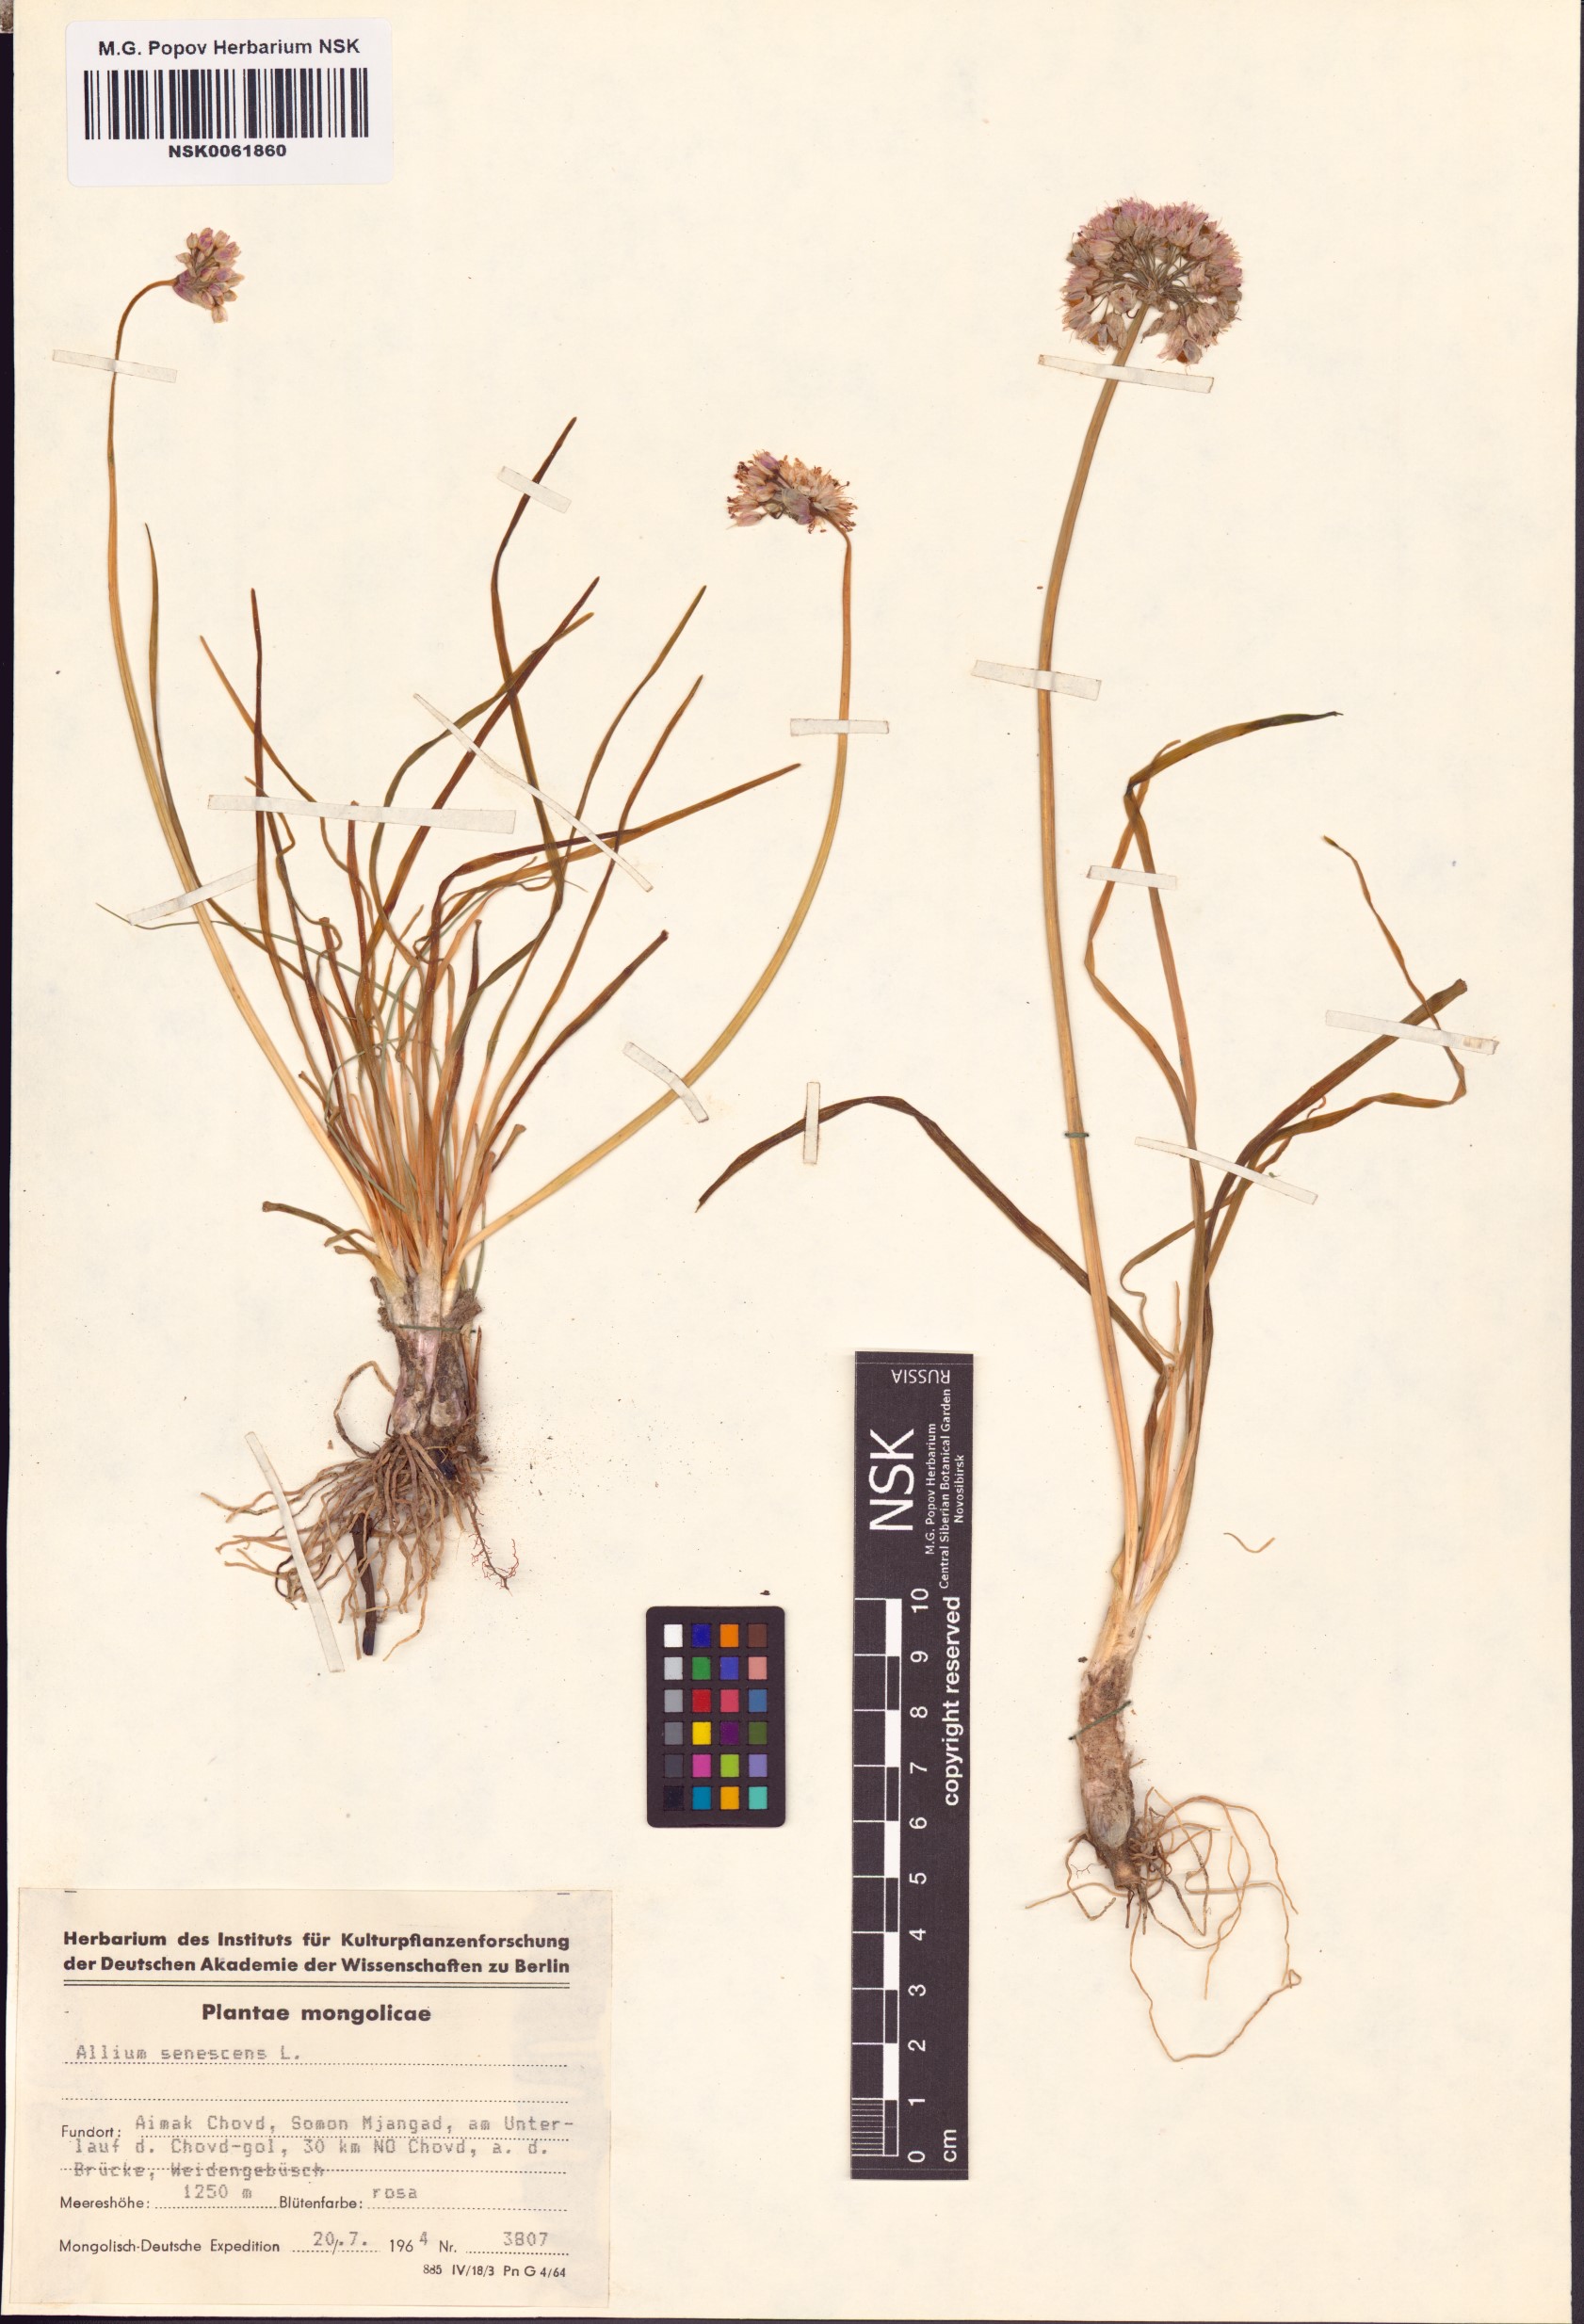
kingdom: Plantae
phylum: Tracheophyta
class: Liliopsida
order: Asparagales
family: Amaryllidaceae
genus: Allium
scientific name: Allium senescens
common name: German garlic
